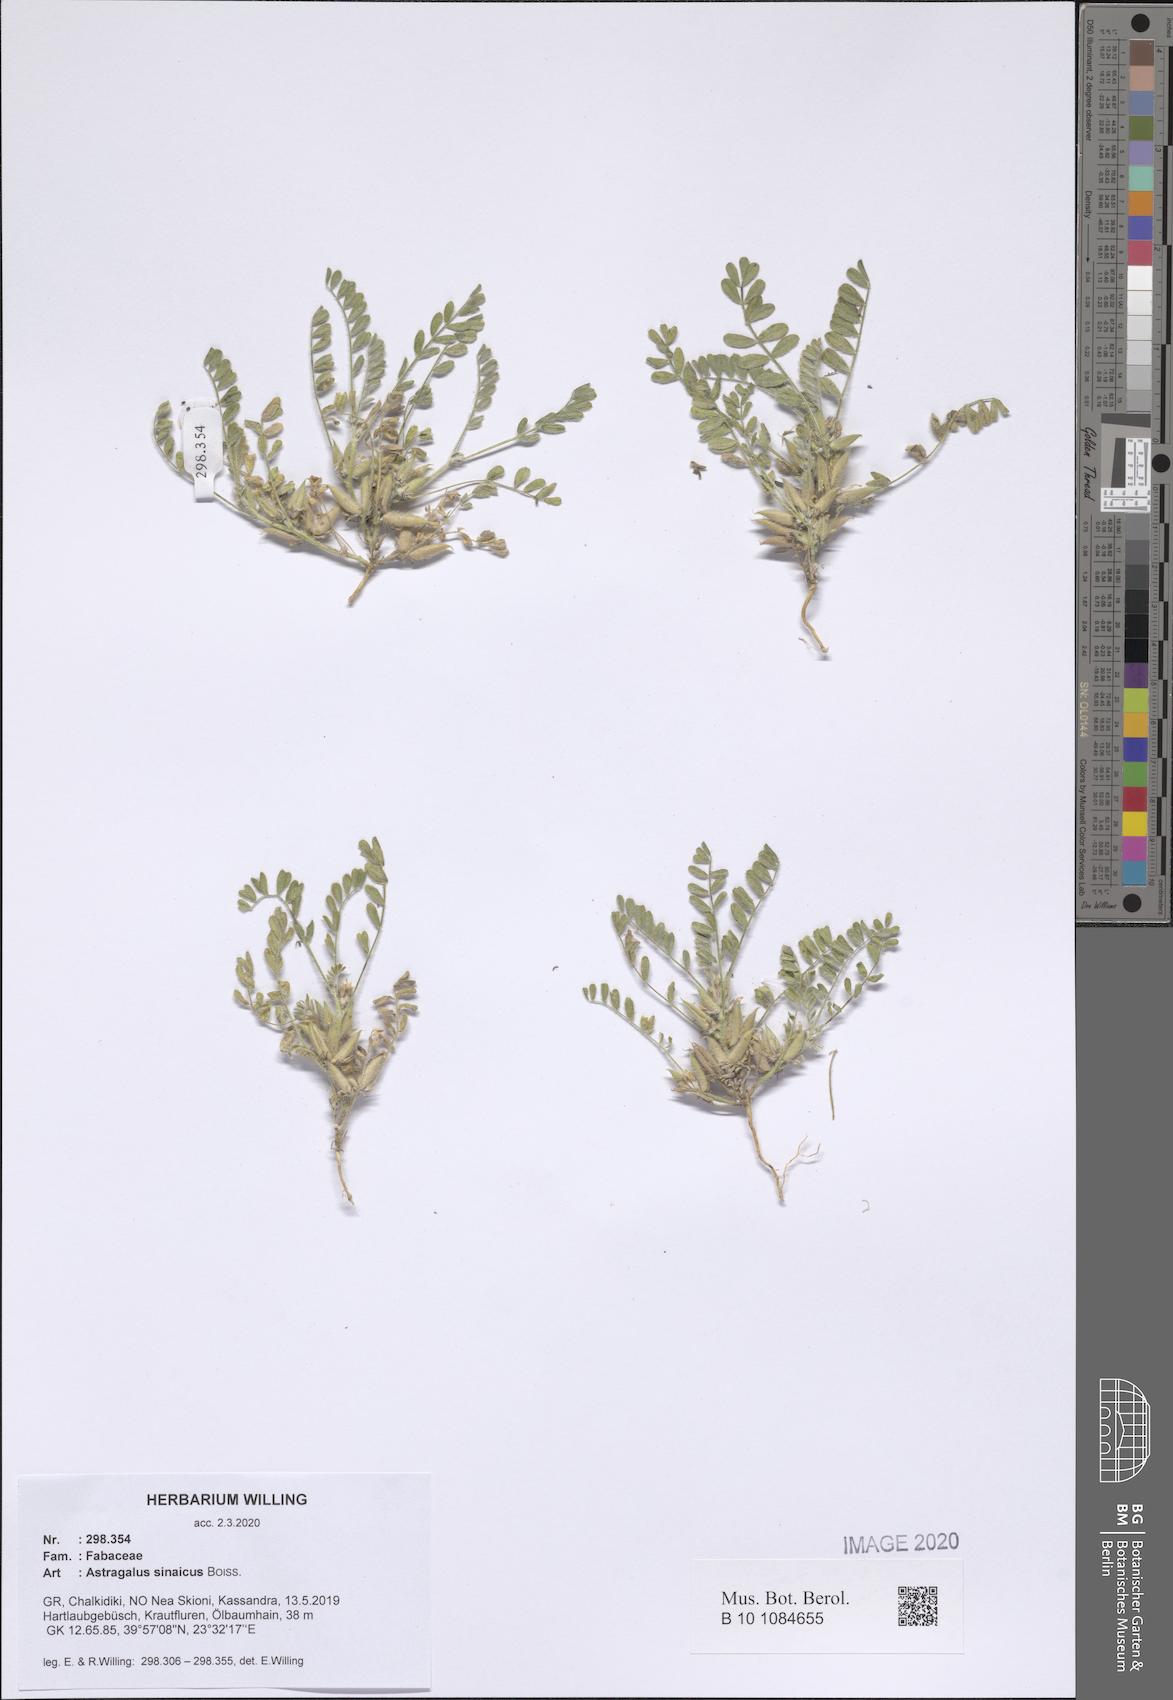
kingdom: Plantae
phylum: Tracheophyta
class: Magnoliopsida
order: Fabales
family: Fabaceae
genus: Astragalus
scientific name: Astragalus sinaicus
